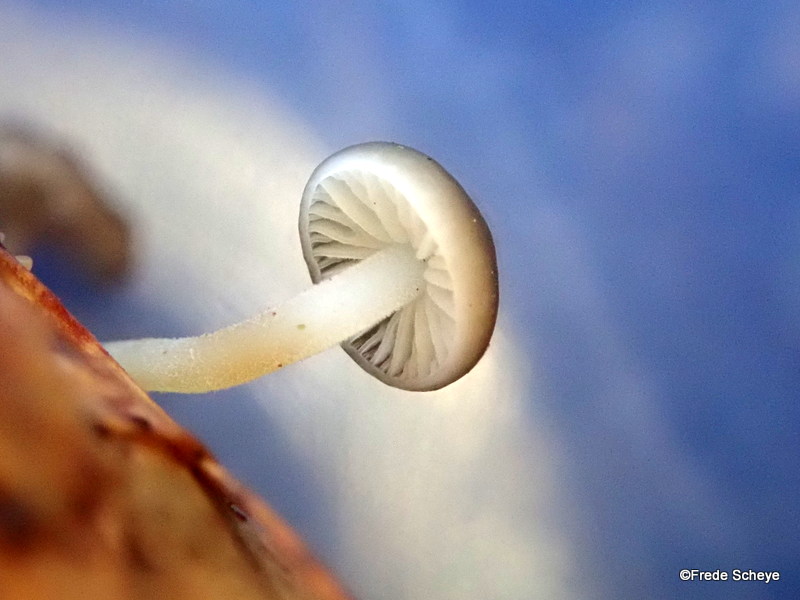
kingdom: Fungi
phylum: Basidiomycota
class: Agaricomycetes
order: Agaricales
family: Physalacriaceae
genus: Strobilurus
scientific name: Strobilurus esculentus
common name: gran-koglehat
